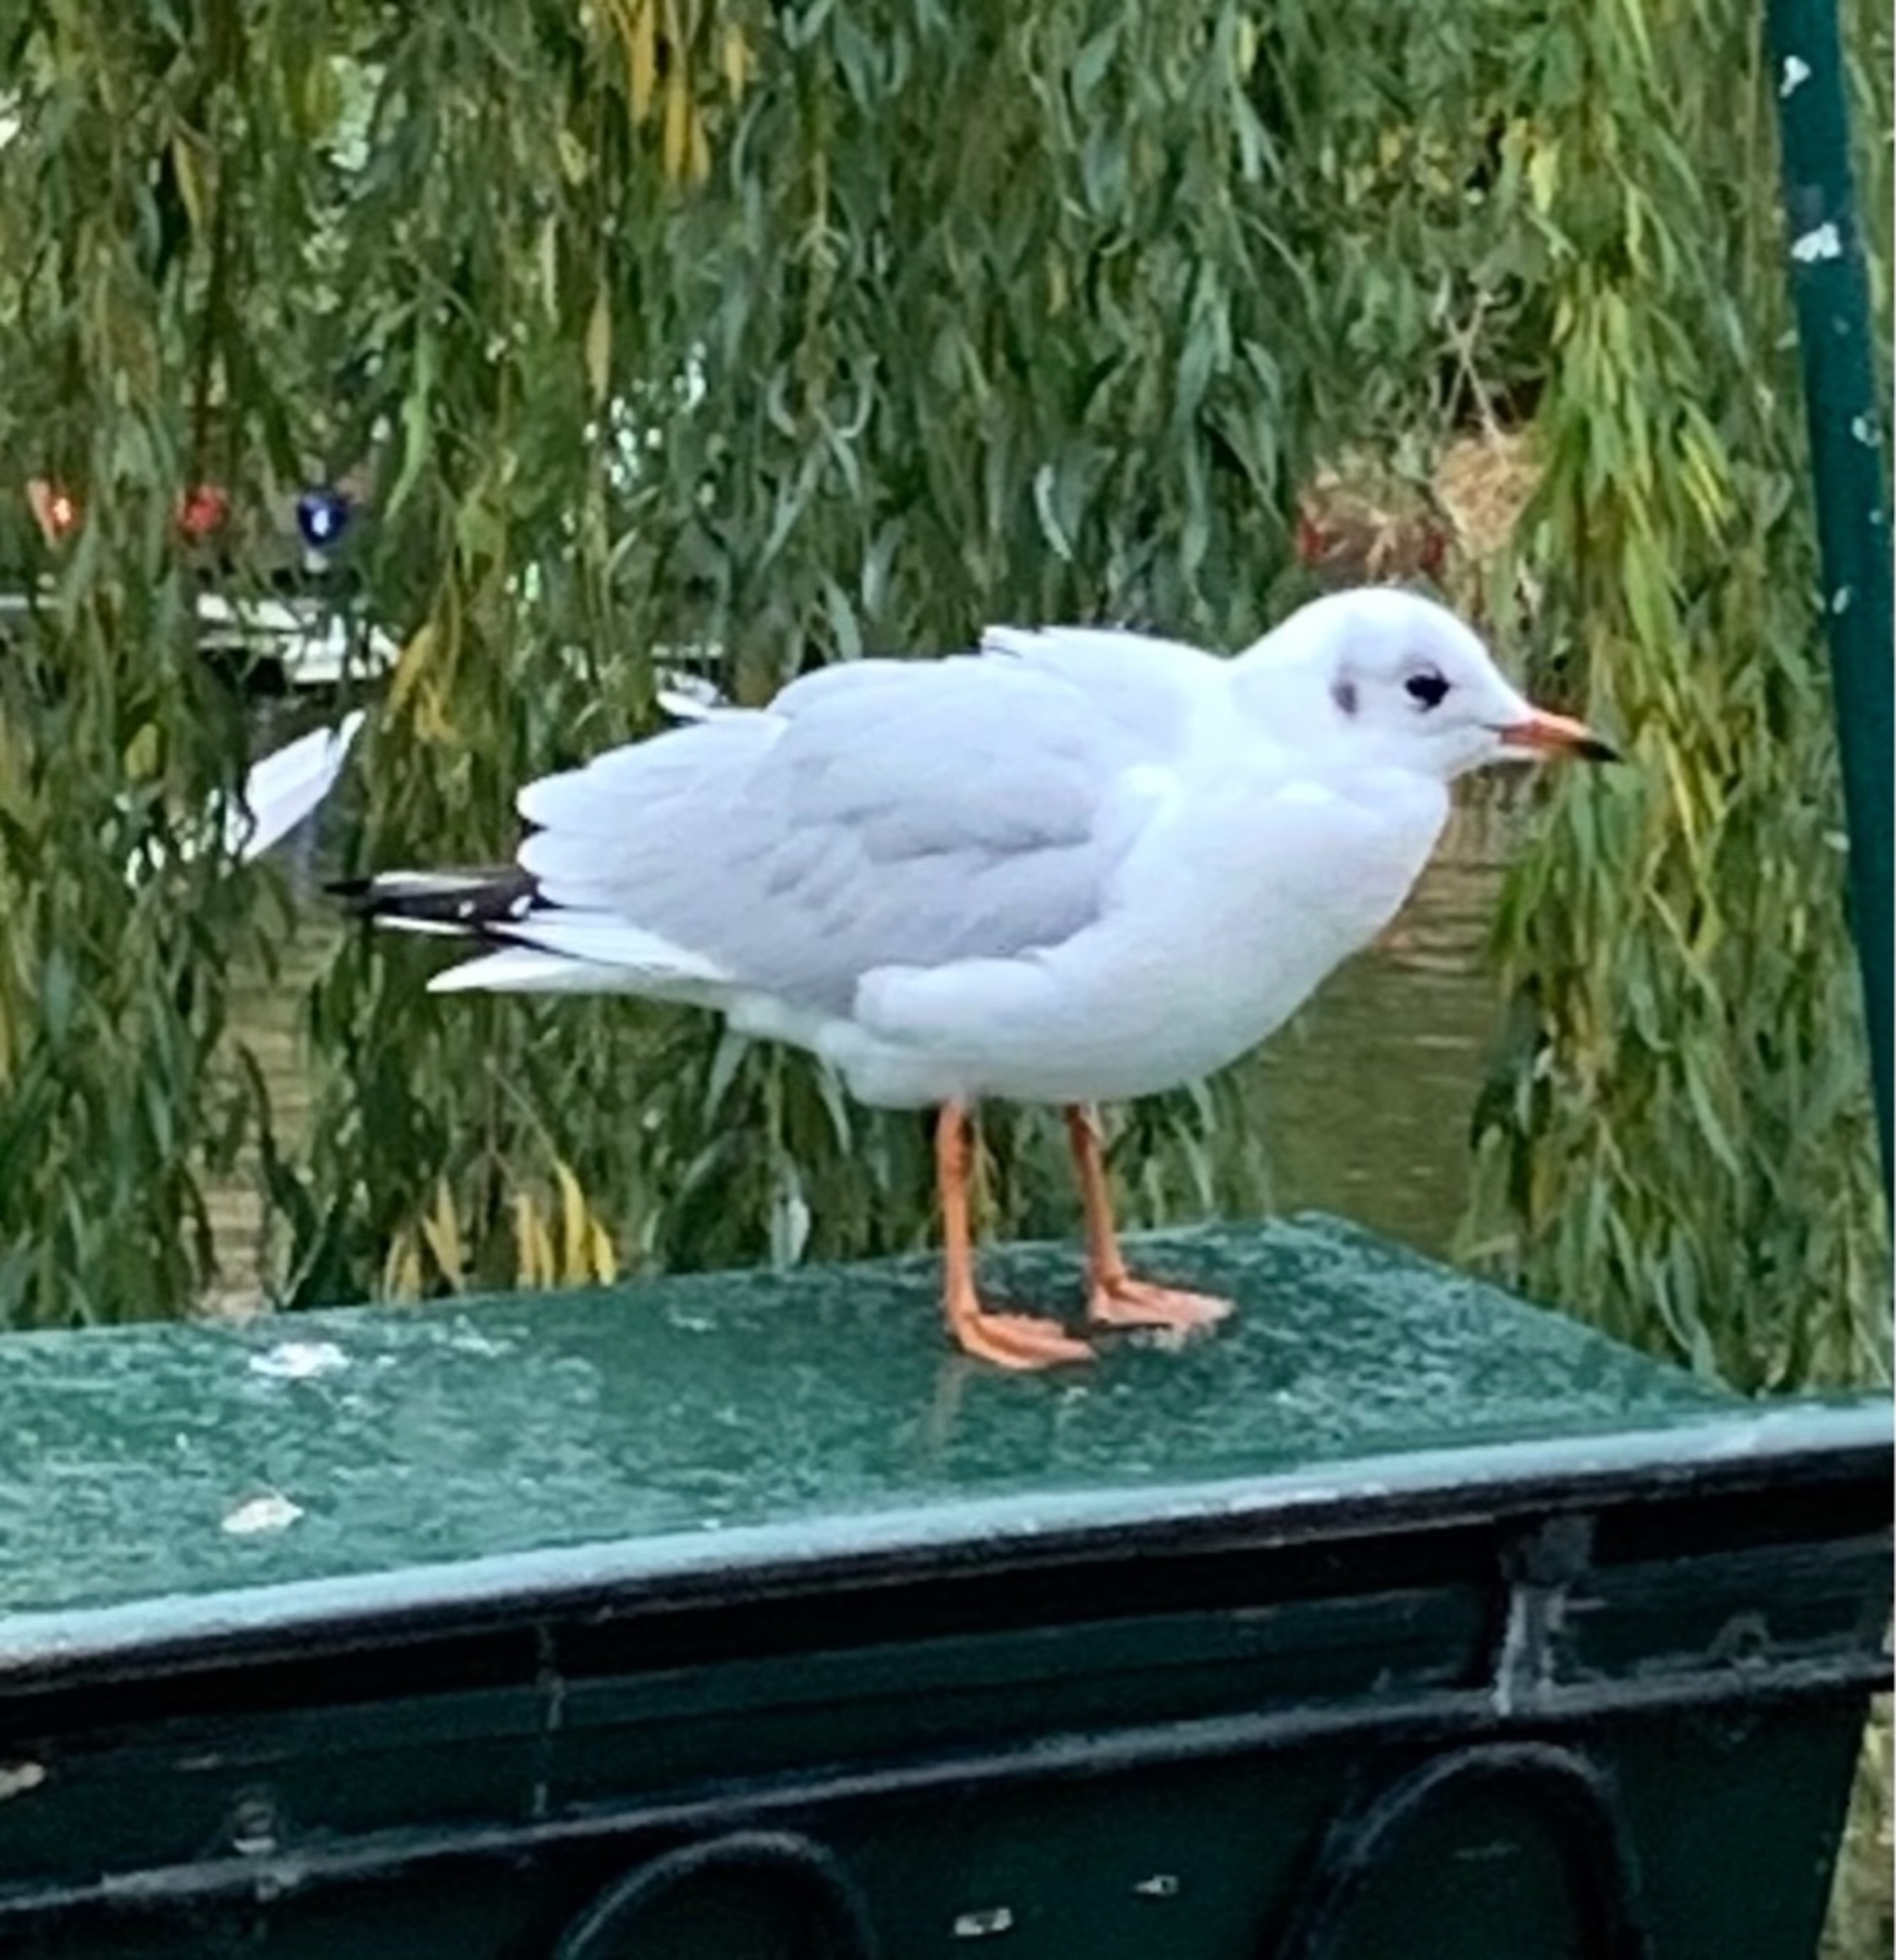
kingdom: Animalia
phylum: Chordata
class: Aves
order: Charadriiformes
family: Laridae
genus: Chroicocephalus
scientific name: Chroicocephalus ridibundus
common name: Hættemåge
